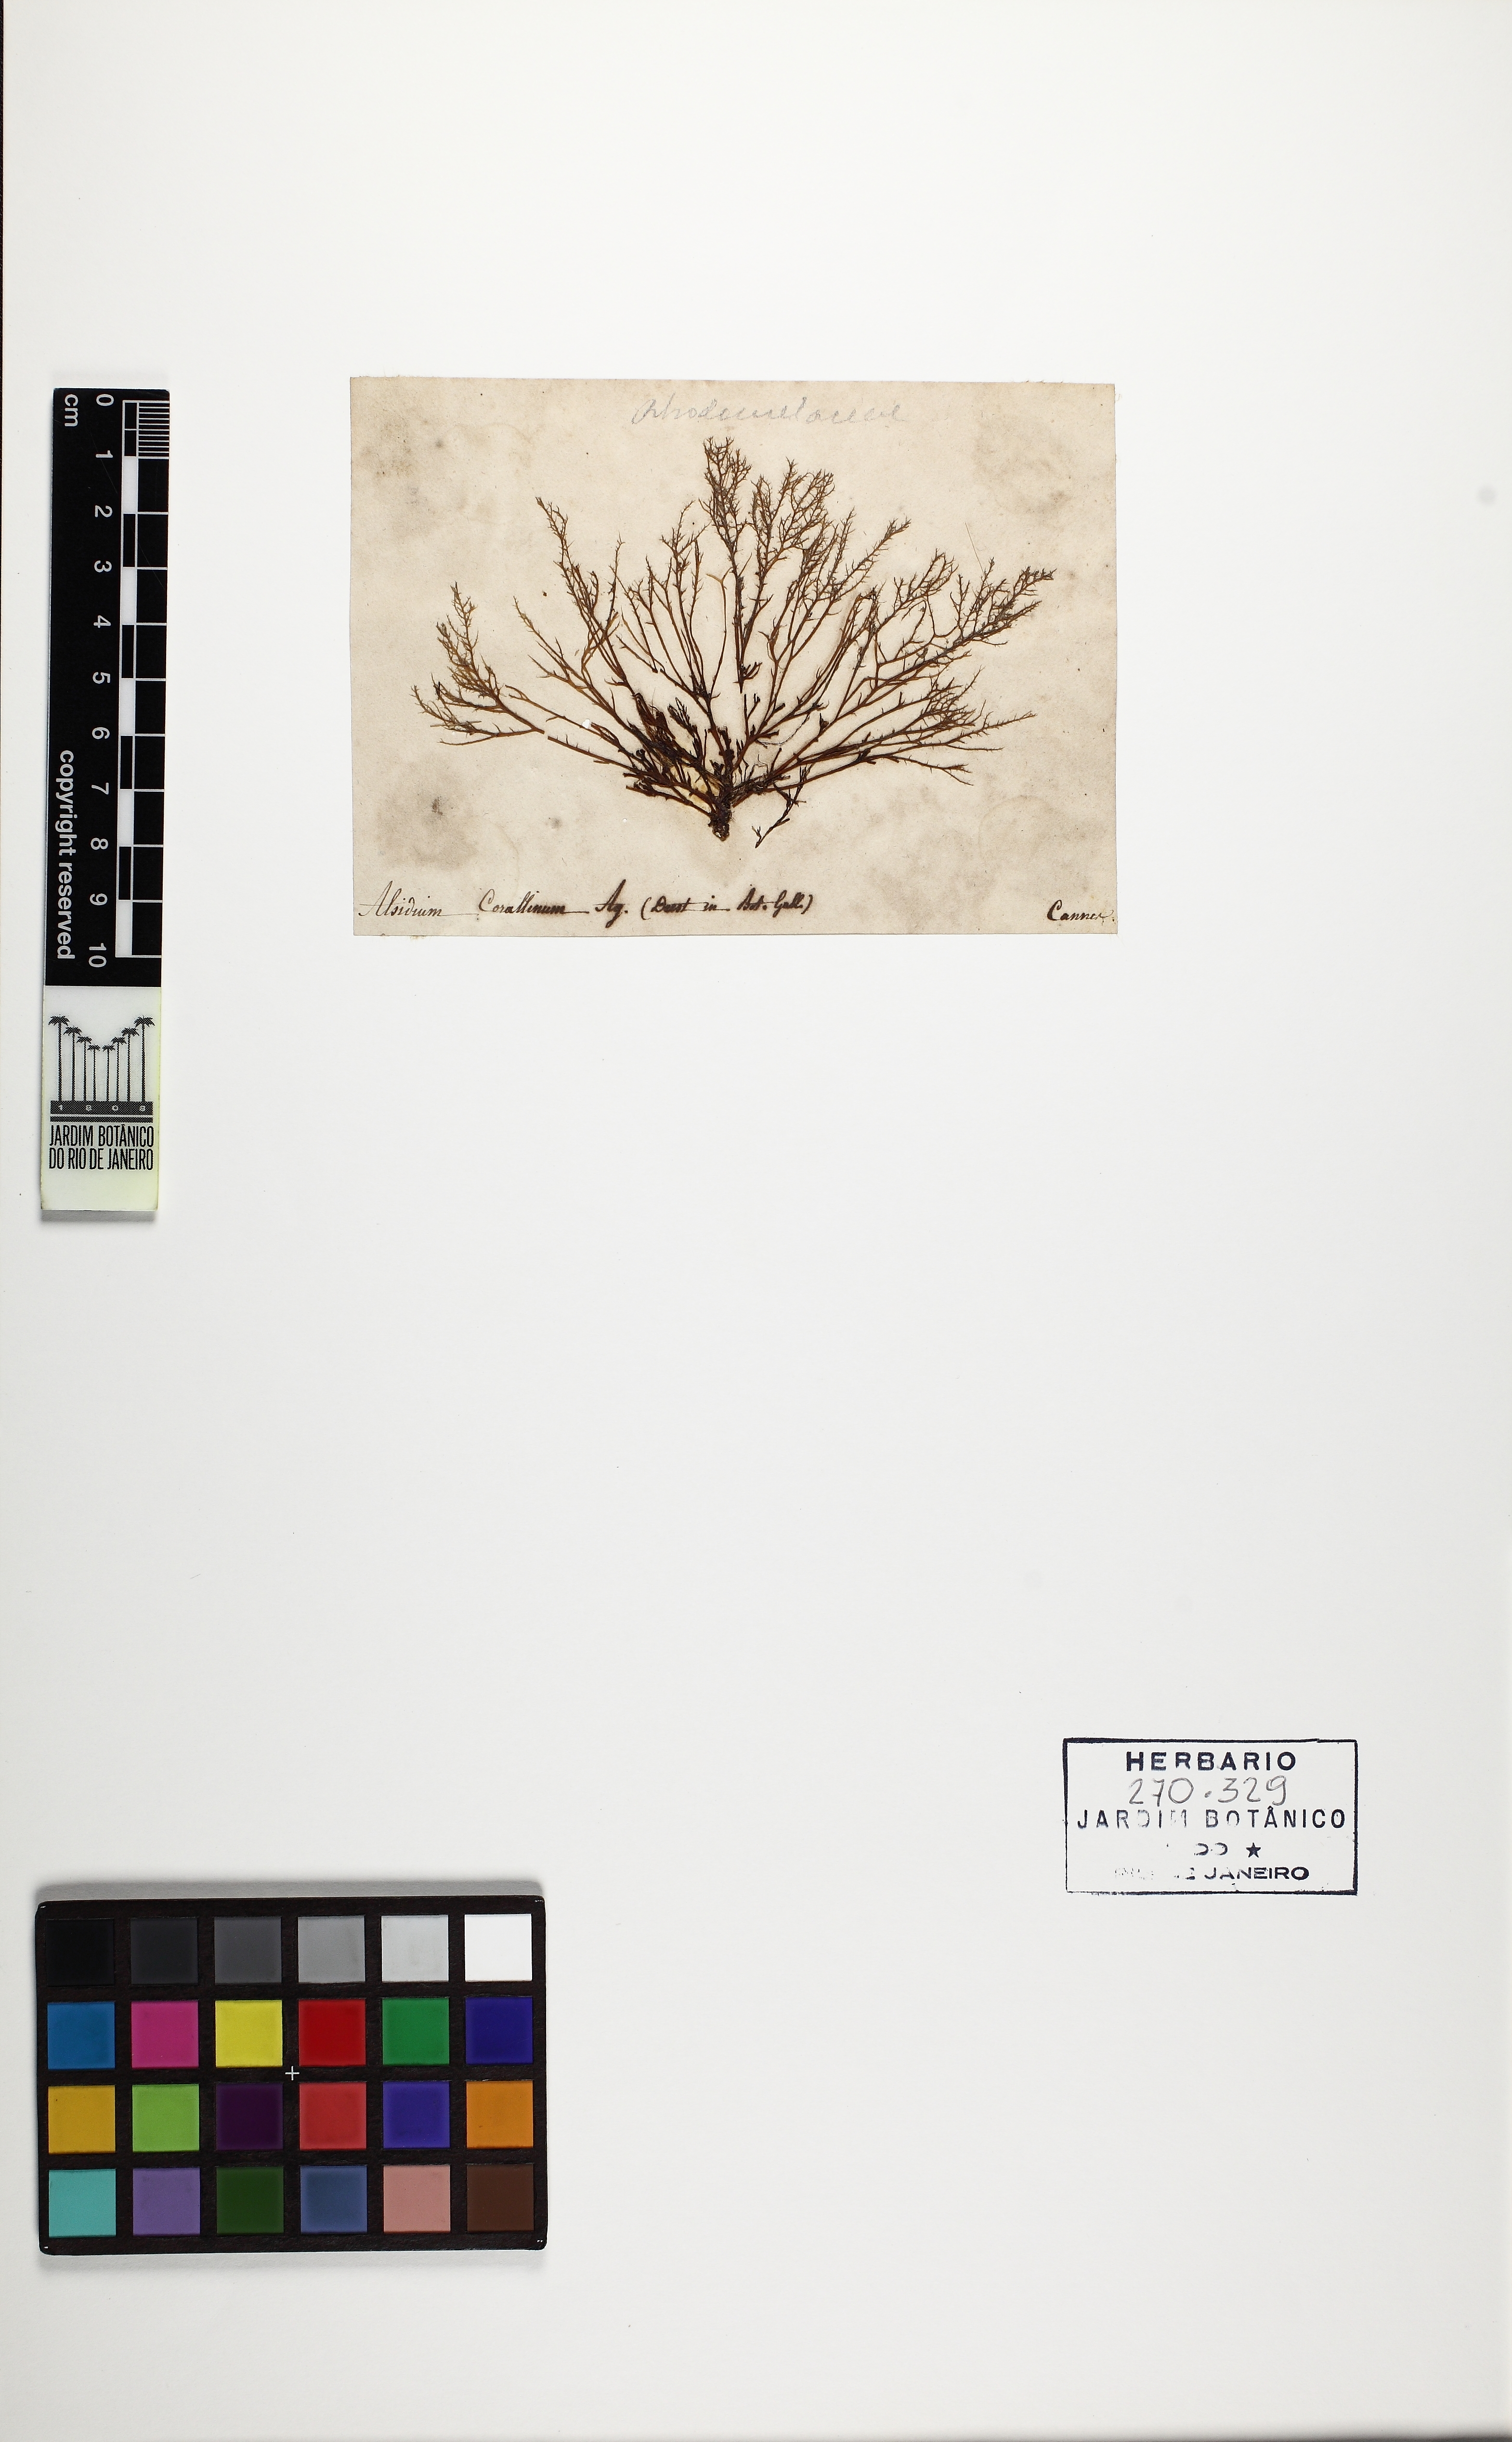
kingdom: Plantae
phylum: Rhodophyta
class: Florideophyceae
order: Ceramiales
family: Rhodomelaceae
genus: Alsidium
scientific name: Alsidium corallinum
